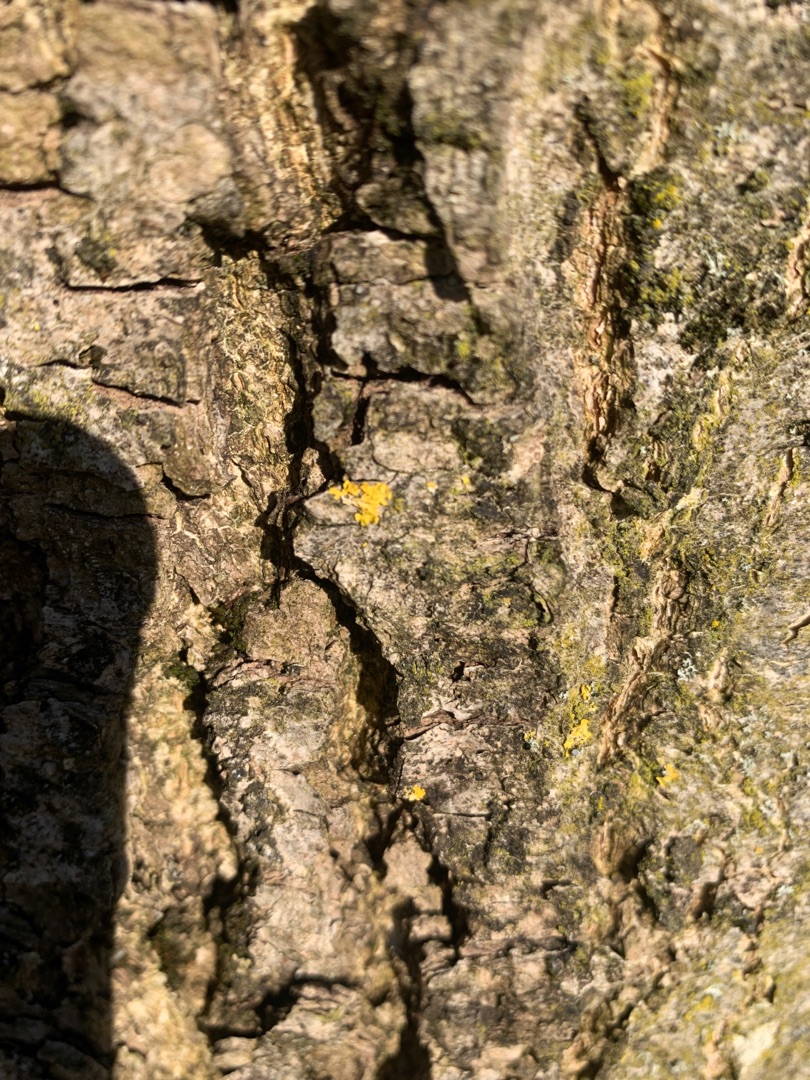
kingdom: Fungi
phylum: Ascomycota
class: Lecanoromycetes
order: Teloschistales
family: Teloschistaceae
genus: Xanthoria
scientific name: Xanthoria parietina
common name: Almindelig væggelav
